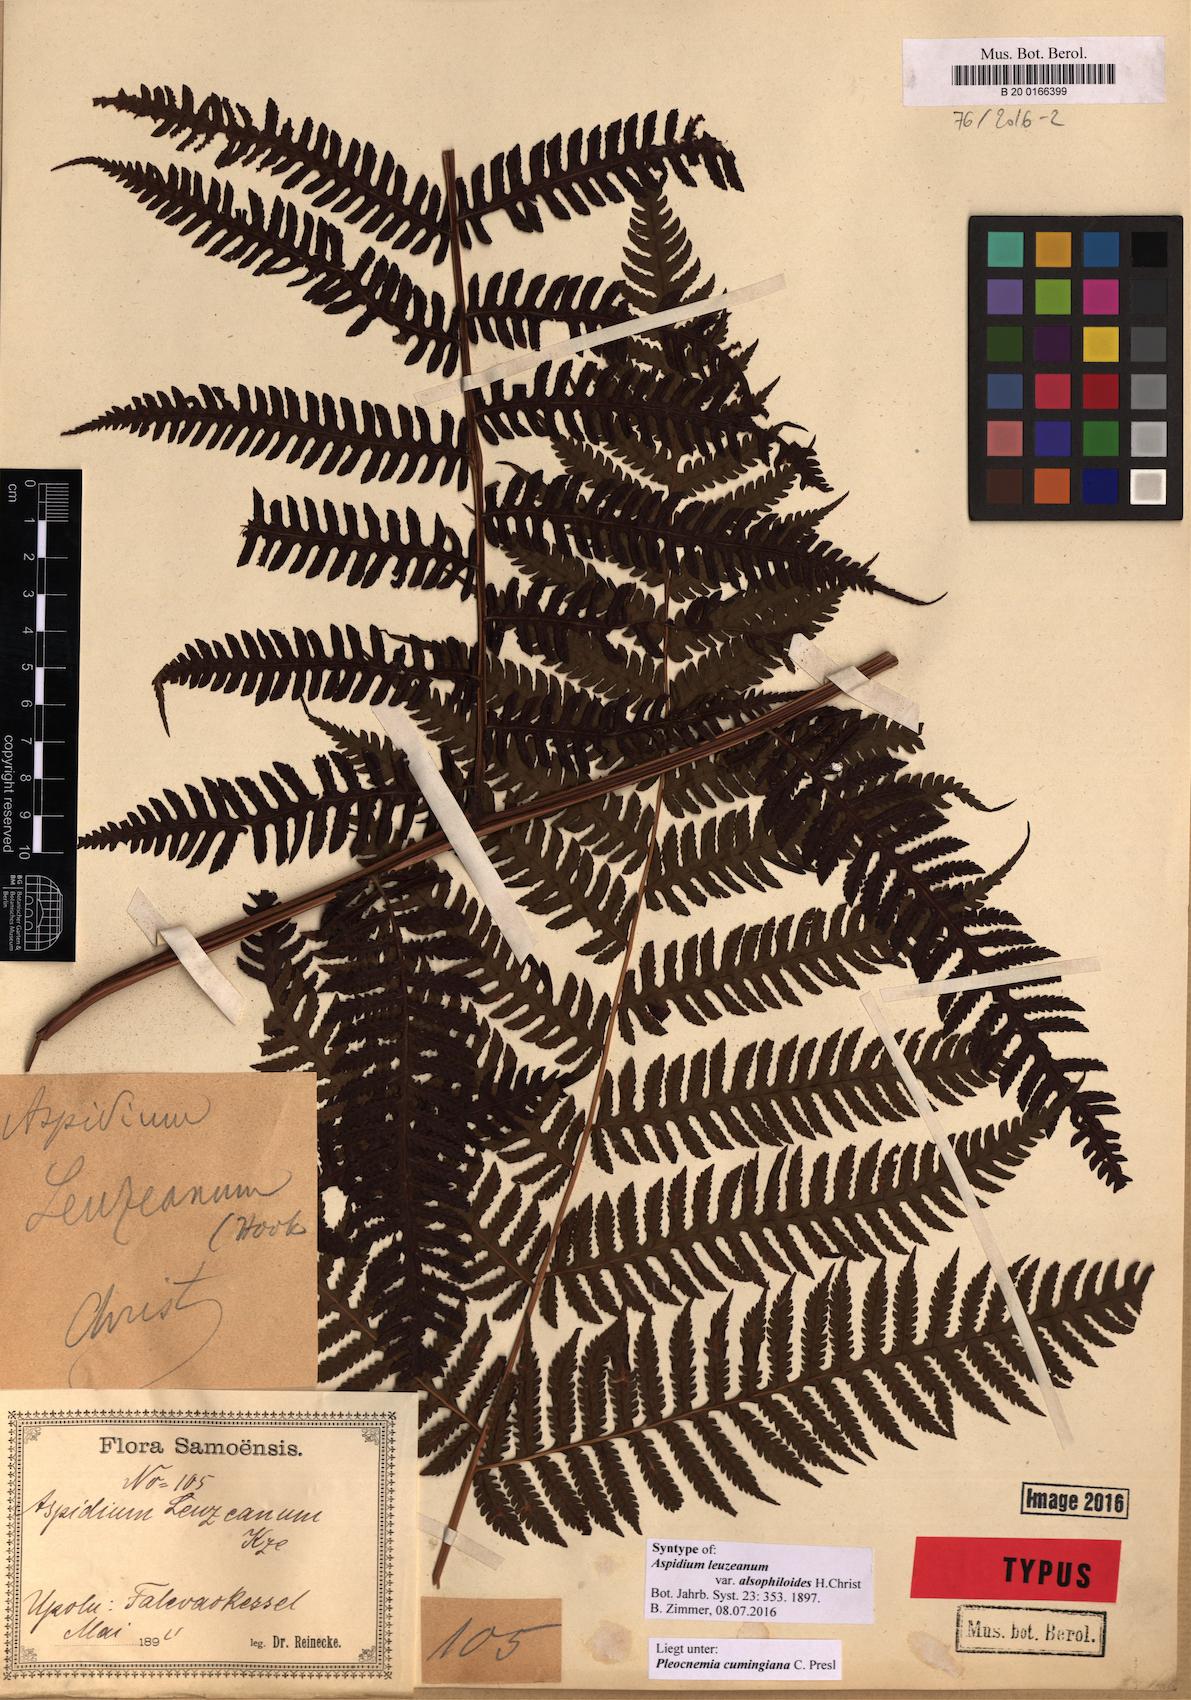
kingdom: Plantae
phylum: Tracheophyta
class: Polypodiopsida
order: Polypodiales
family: Dryopteridaceae
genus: Pleocnemia
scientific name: Pleocnemia cumingiana
